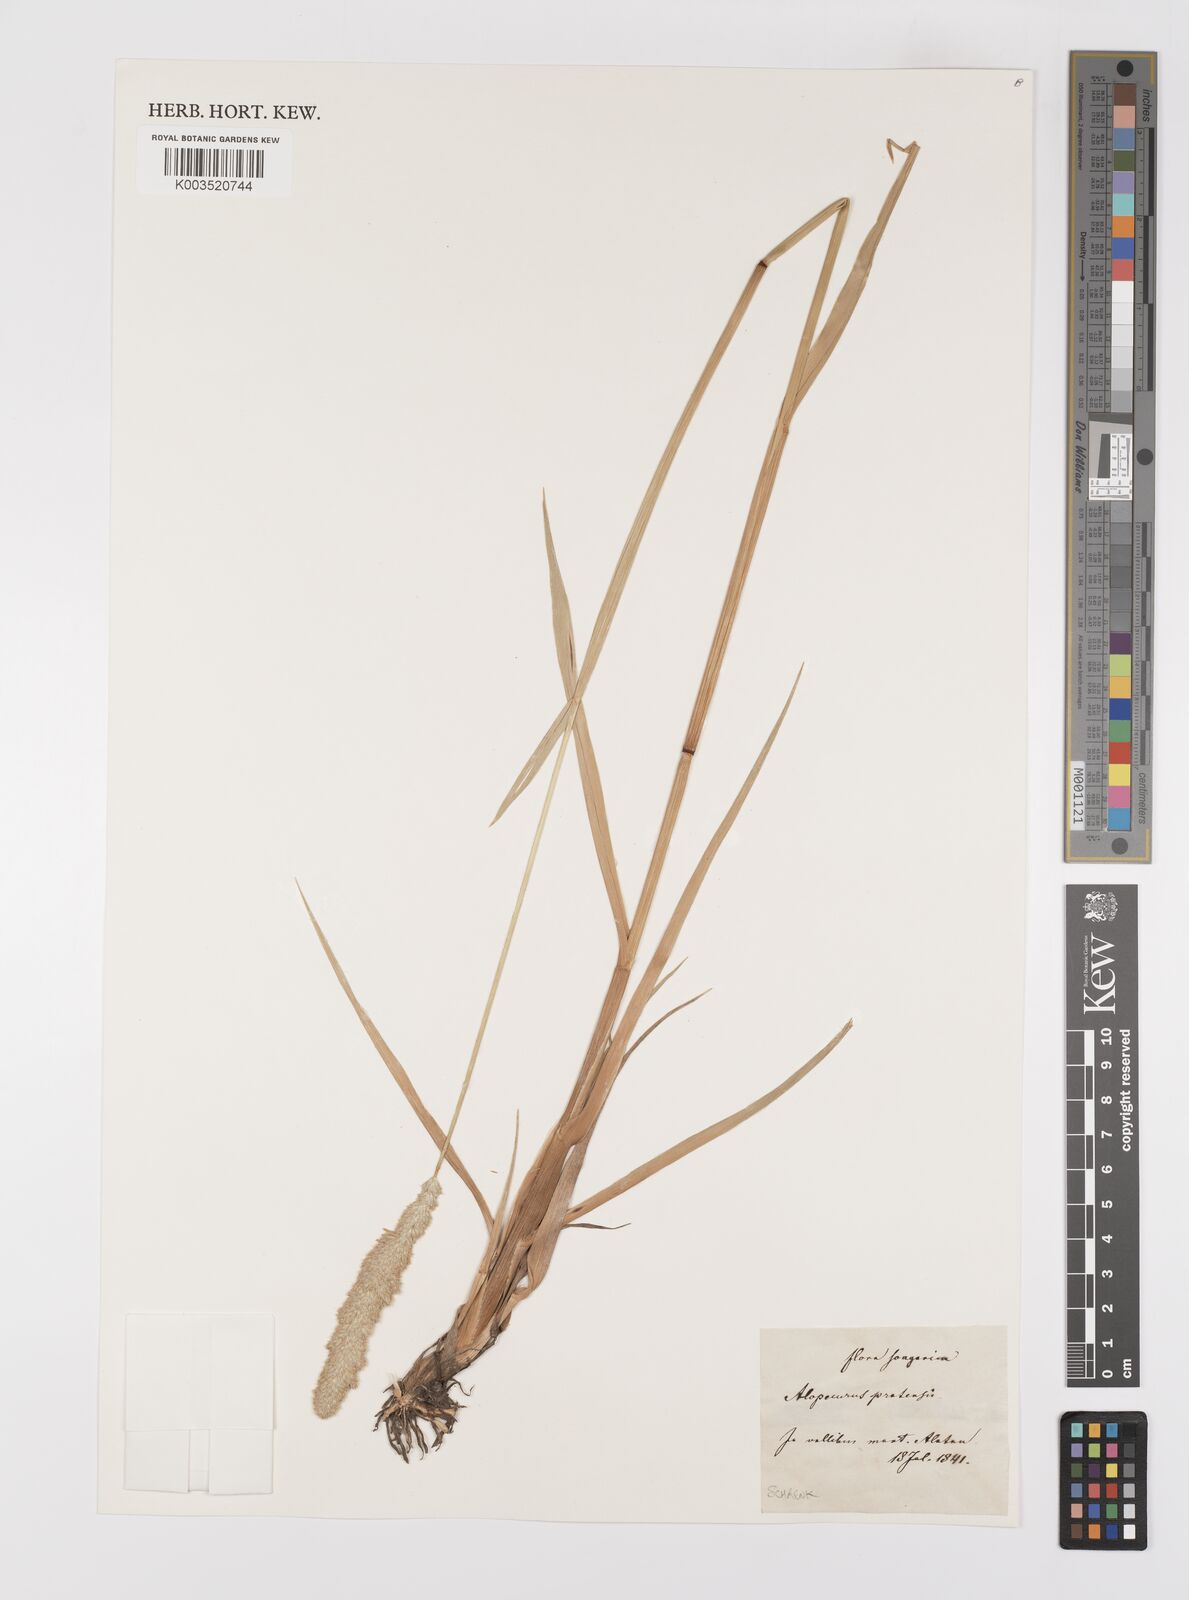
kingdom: Plantae
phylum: Tracheophyta
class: Liliopsida
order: Poales
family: Poaceae
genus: Alopecurus
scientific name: Alopecurus pratensis
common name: Meadow foxtail
